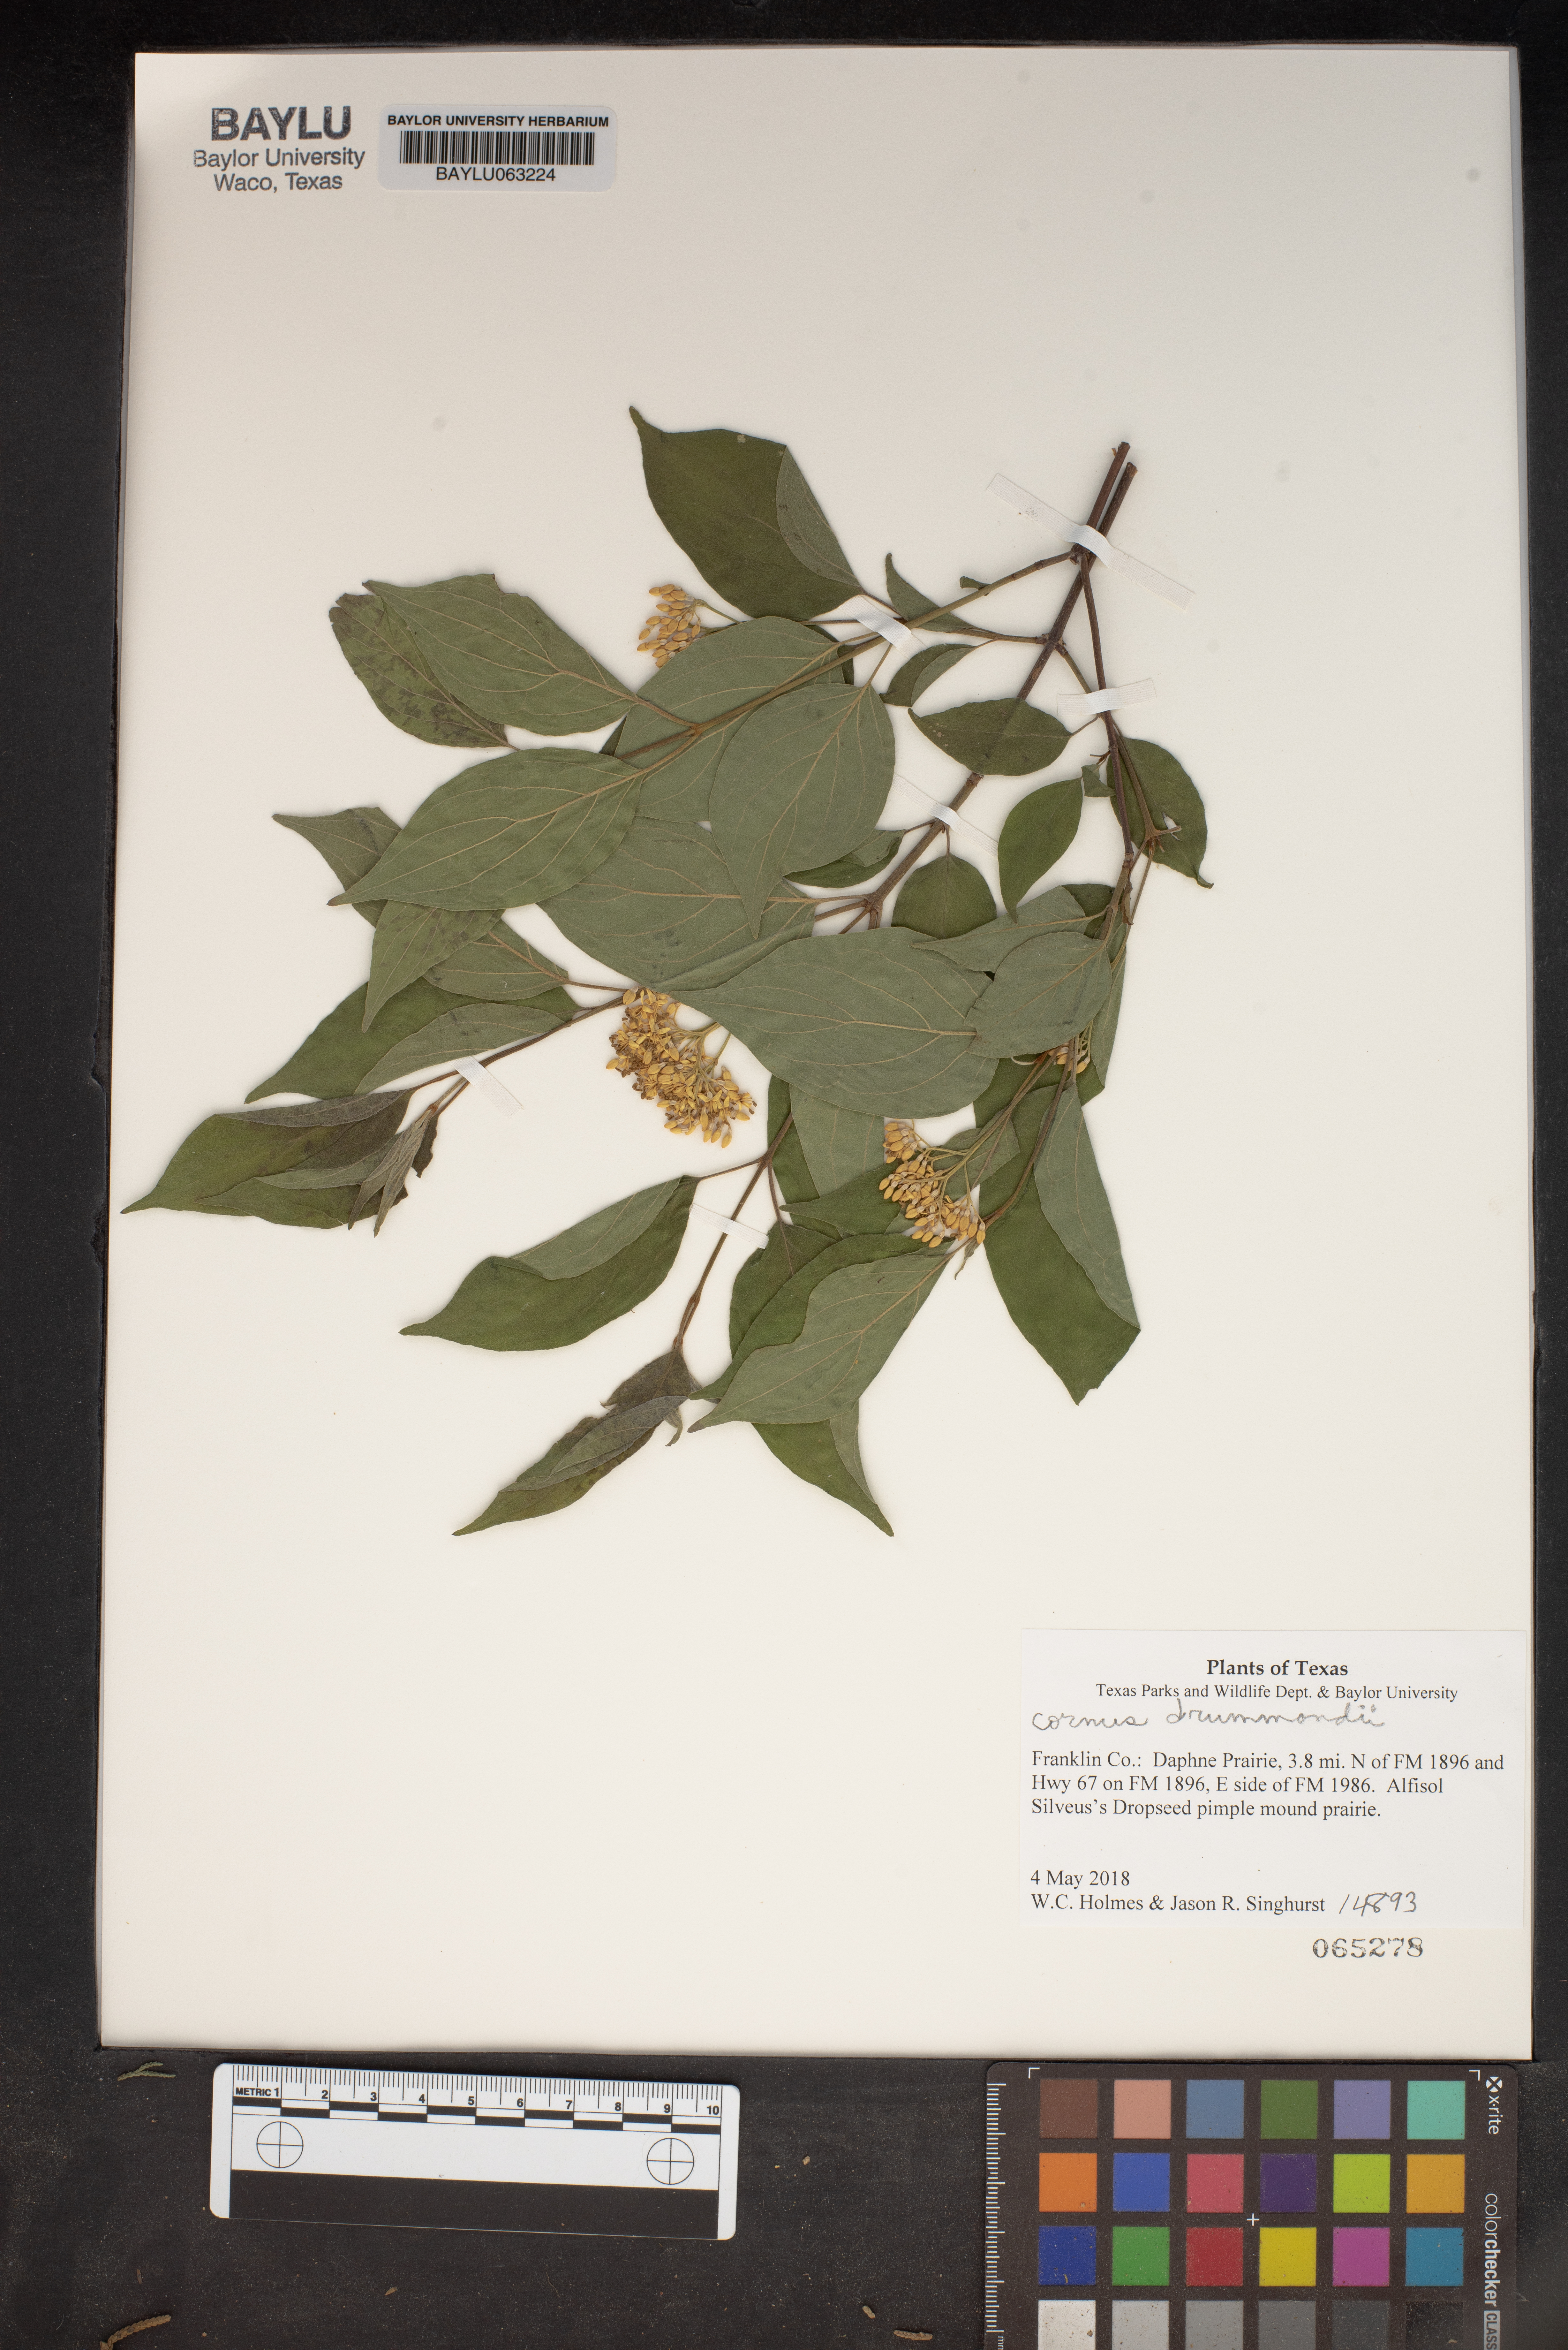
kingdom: Plantae
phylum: Tracheophyta
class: Magnoliopsida
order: Cornales
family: Cornaceae
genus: Cornus
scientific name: Cornus drummondii
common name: Rough-leaf dogwood
